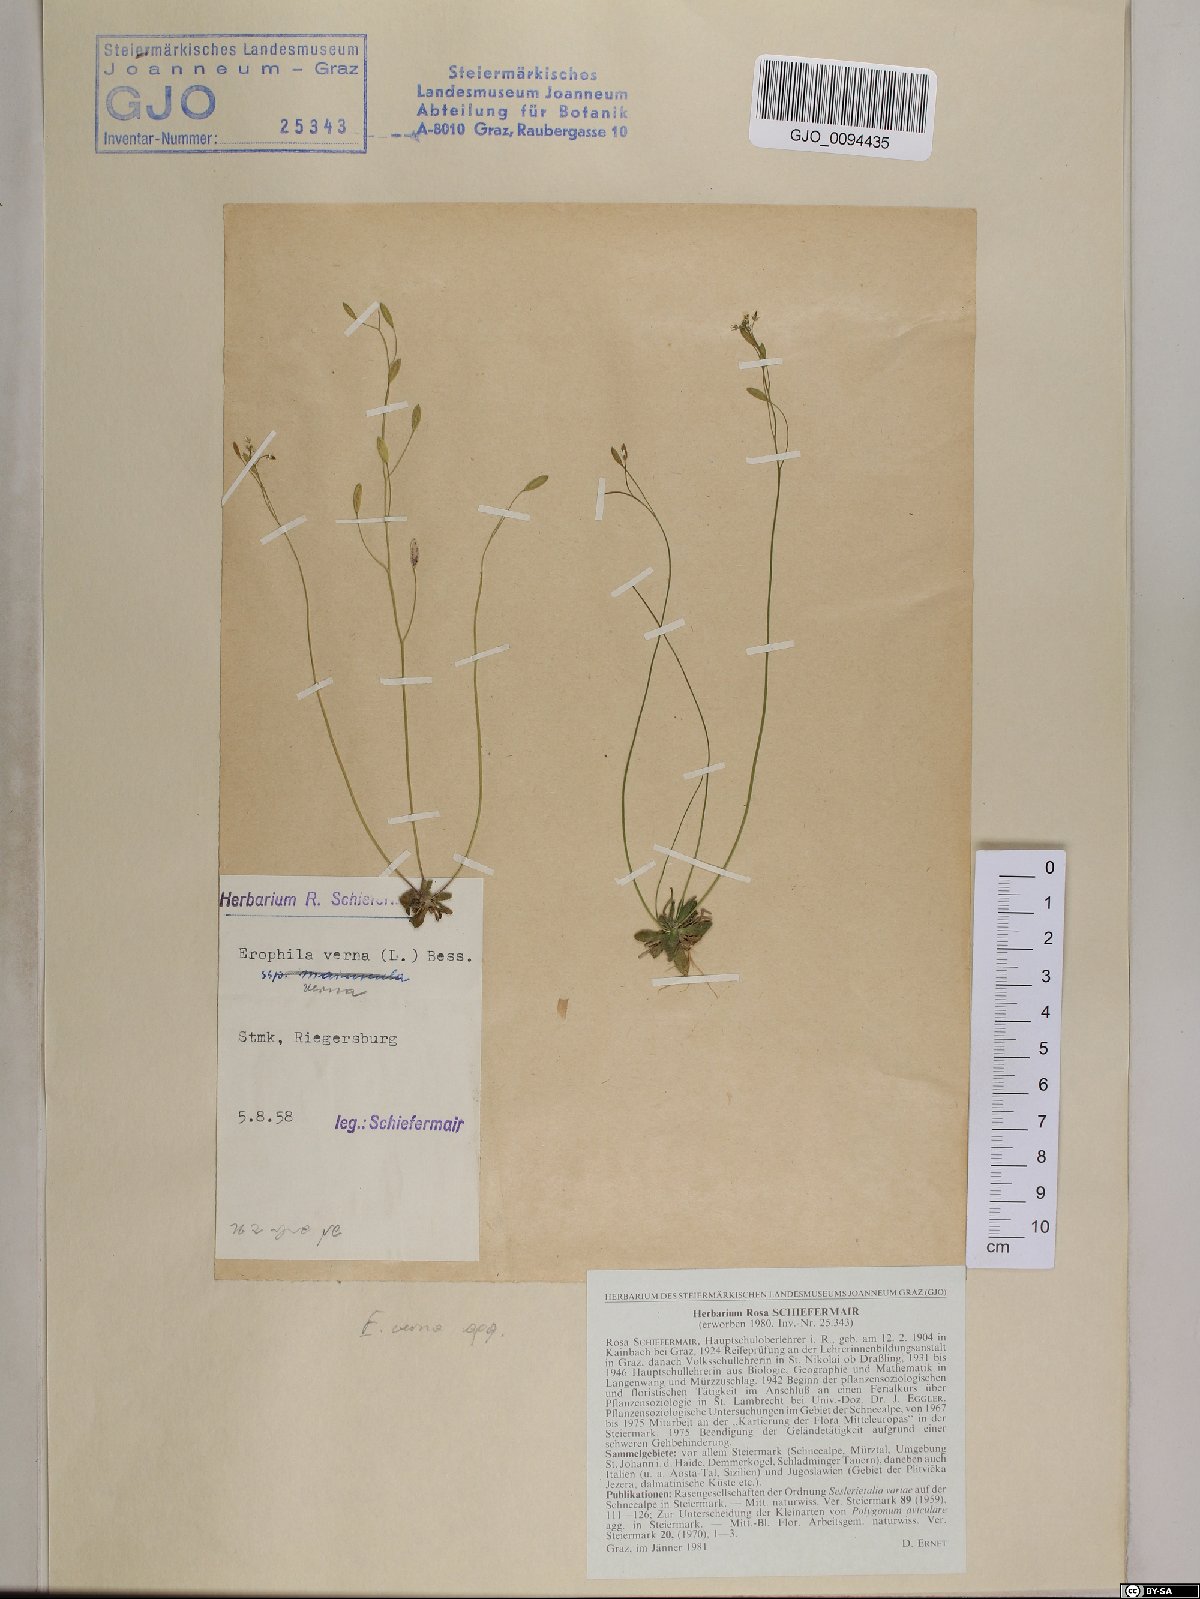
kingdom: Plantae
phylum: Tracheophyta
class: Magnoliopsida
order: Brassicales
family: Brassicaceae
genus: Draba
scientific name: Draba verna
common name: Spring draba
